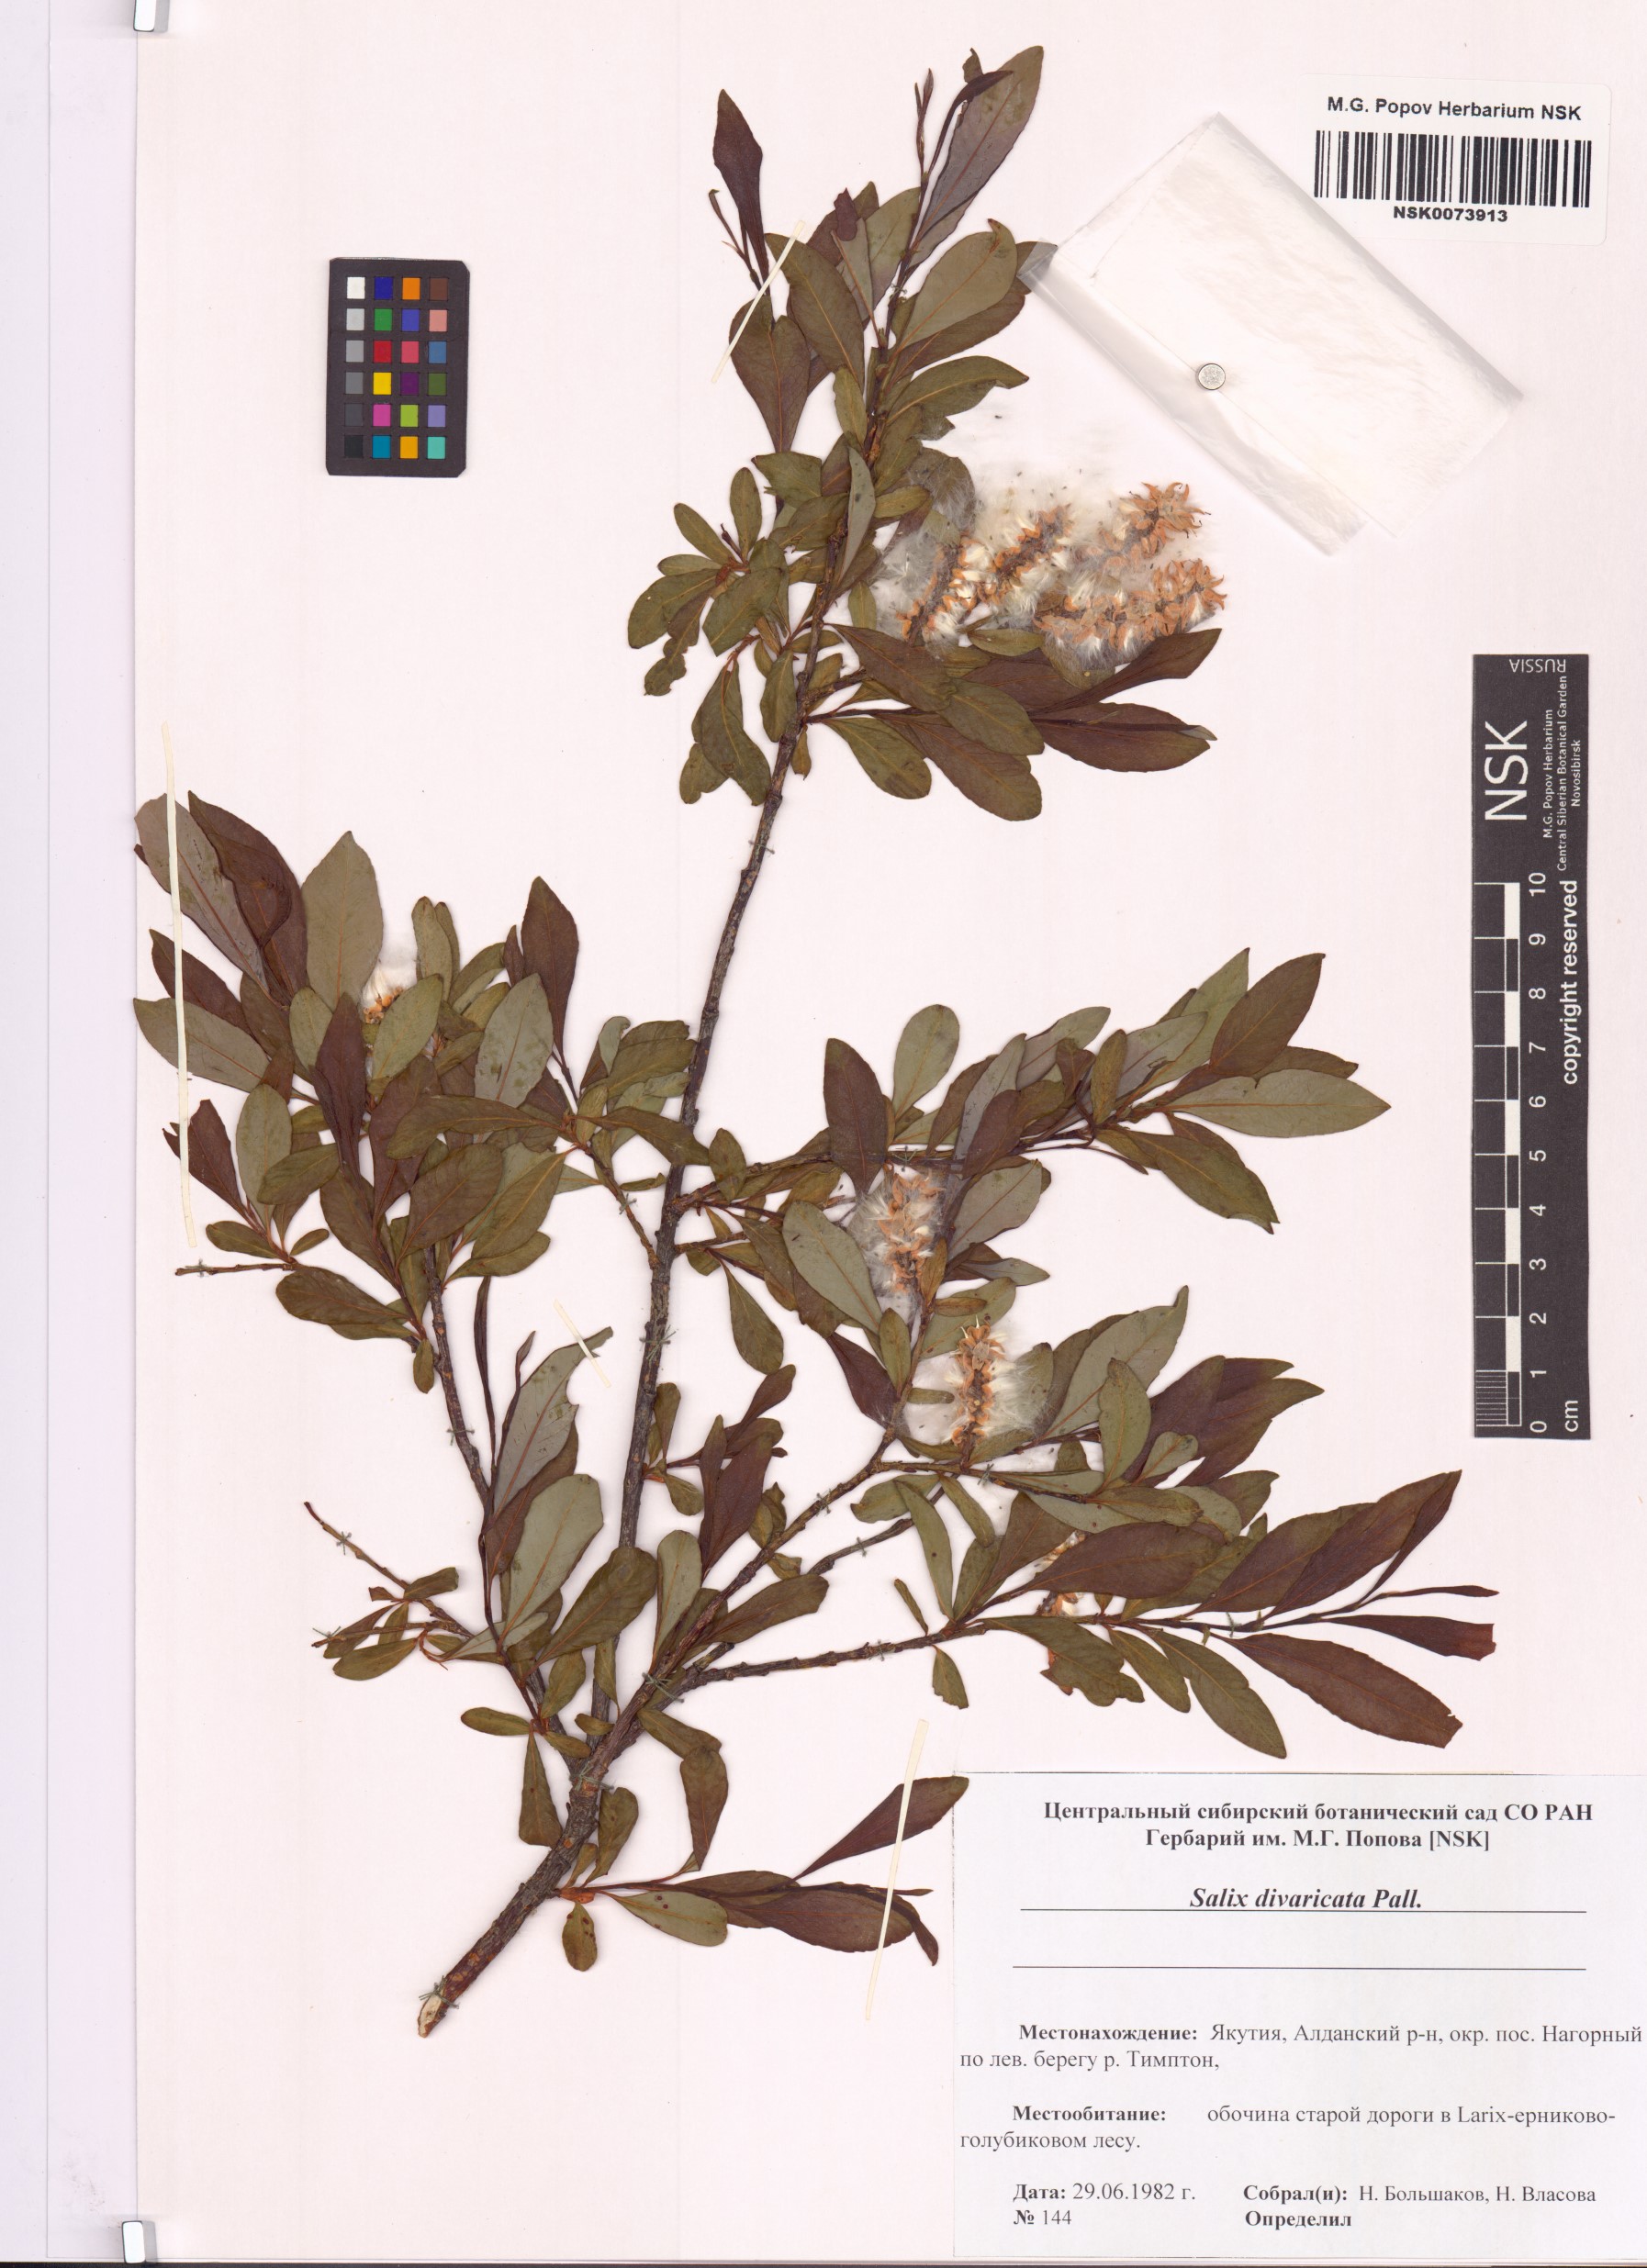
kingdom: Plantae
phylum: Tracheophyta
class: Magnoliopsida
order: Malpighiales
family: Salicaceae
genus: Salix
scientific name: Salix divaricata
